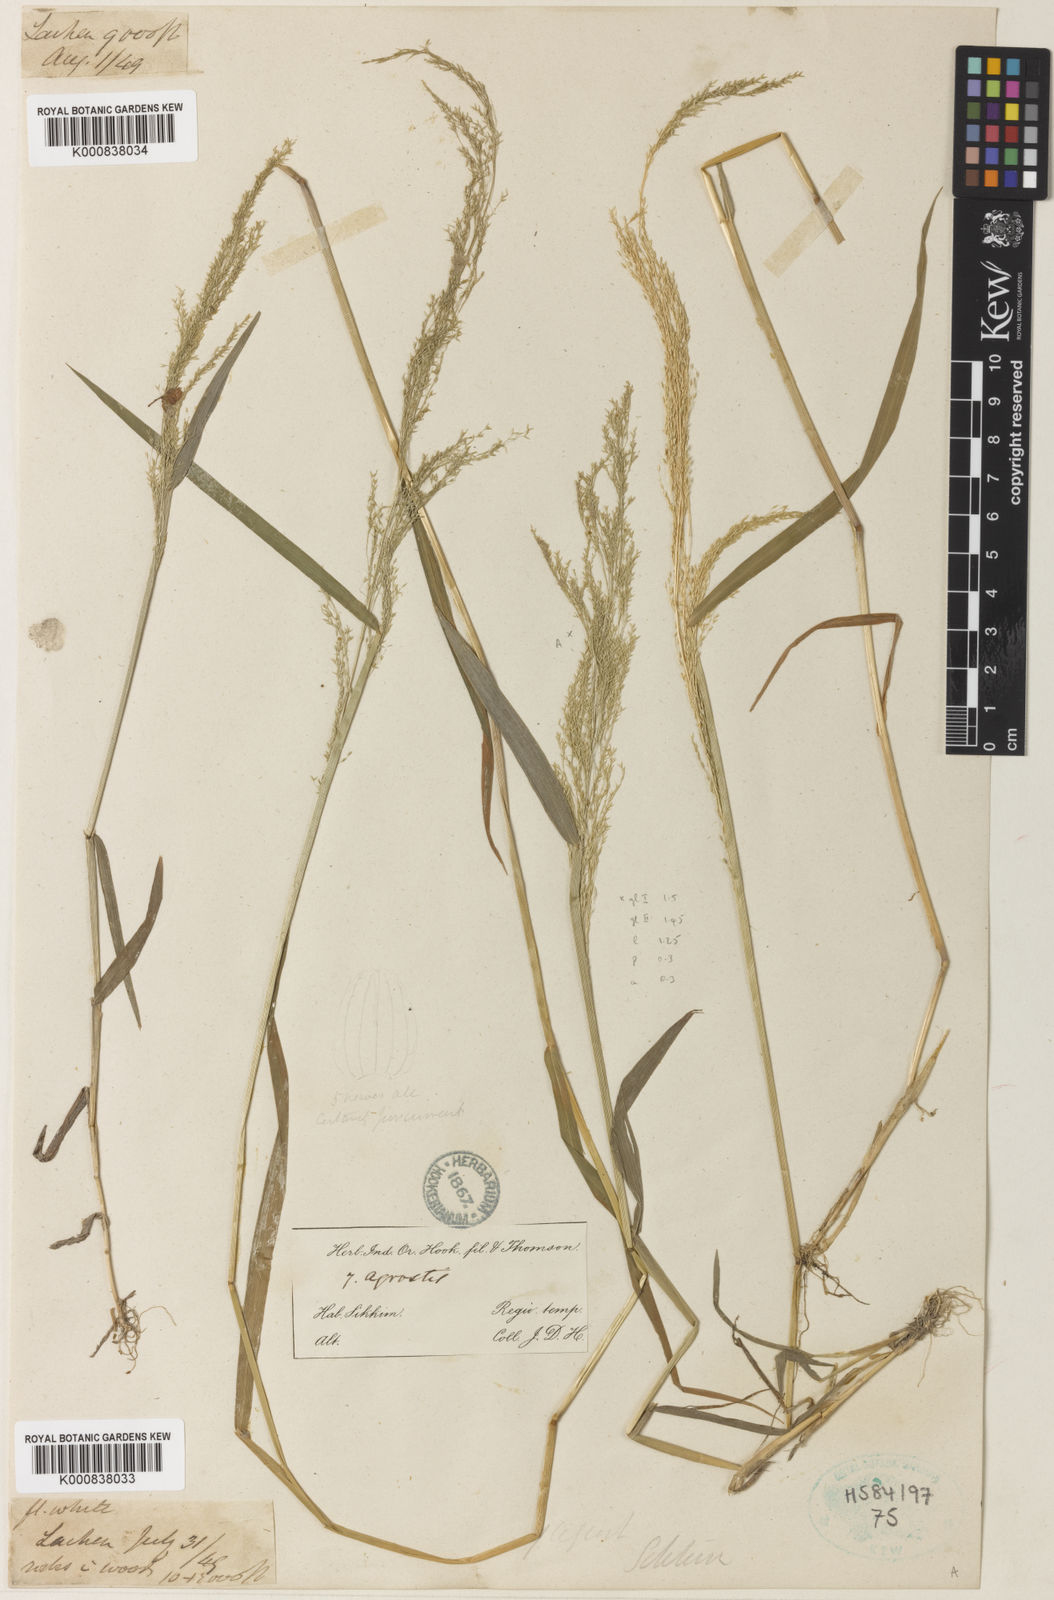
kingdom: Plantae
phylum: Tracheophyta
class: Liliopsida
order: Poales
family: Poaceae
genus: Agrostis
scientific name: Agrostis micrantha
